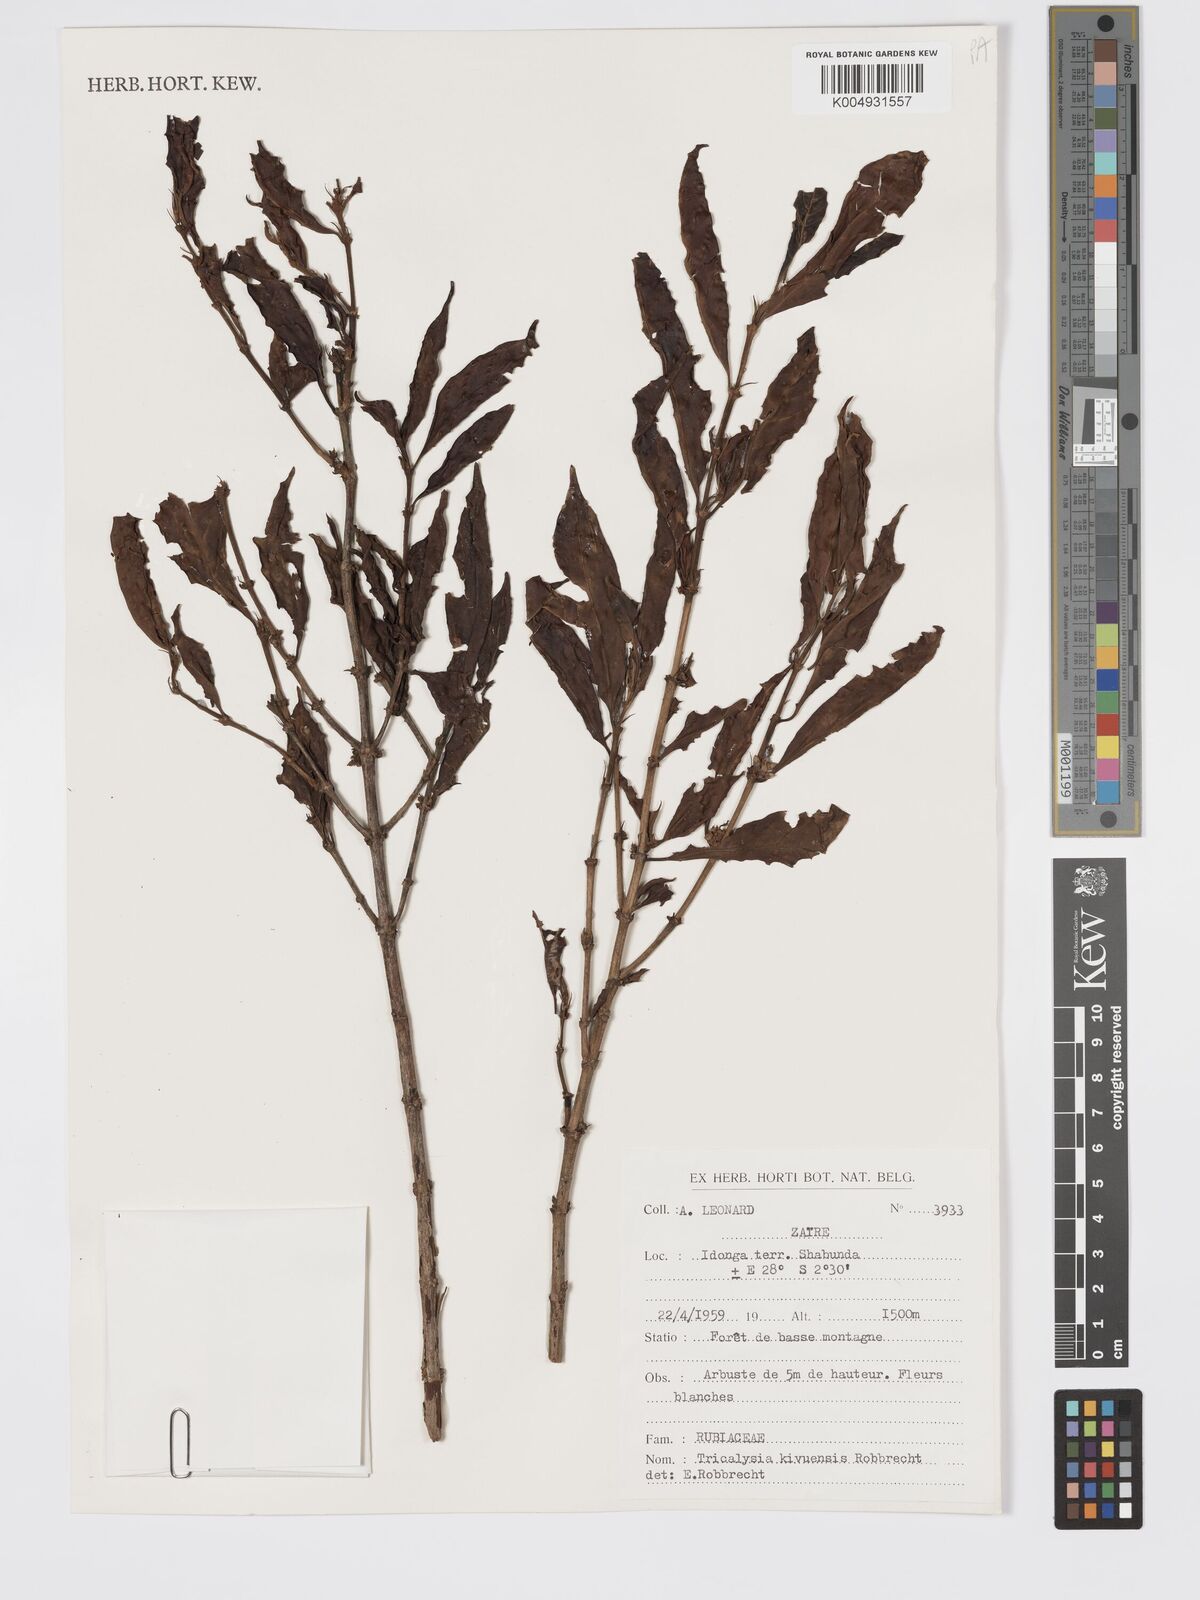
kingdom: Plantae
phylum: Tracheophyta
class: Magnoliopsida
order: Gentianales
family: Rubiaceae
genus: Tricalysia
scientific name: Tricalysia kivuensis
